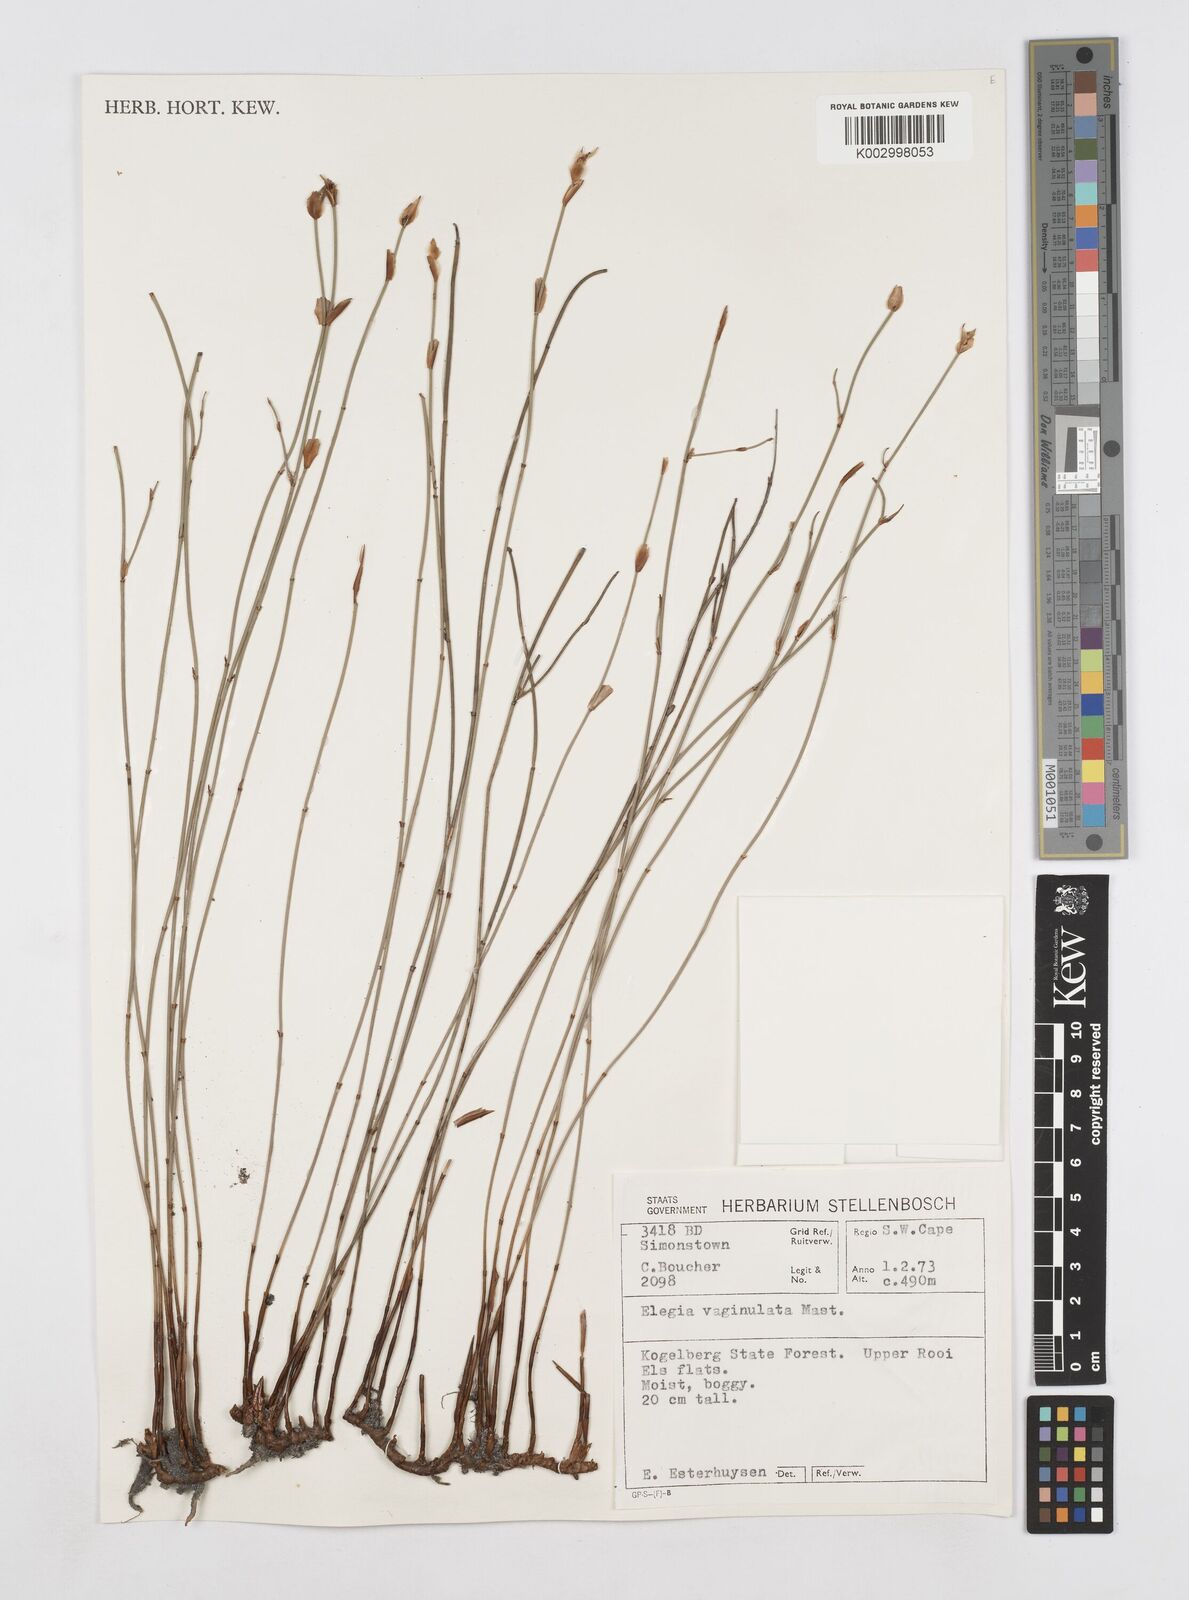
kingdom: Plantae
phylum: Tracheophyta
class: Liliopsida
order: Poales
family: Restionaceae
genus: Elegia
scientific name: Elegia vaginulata
